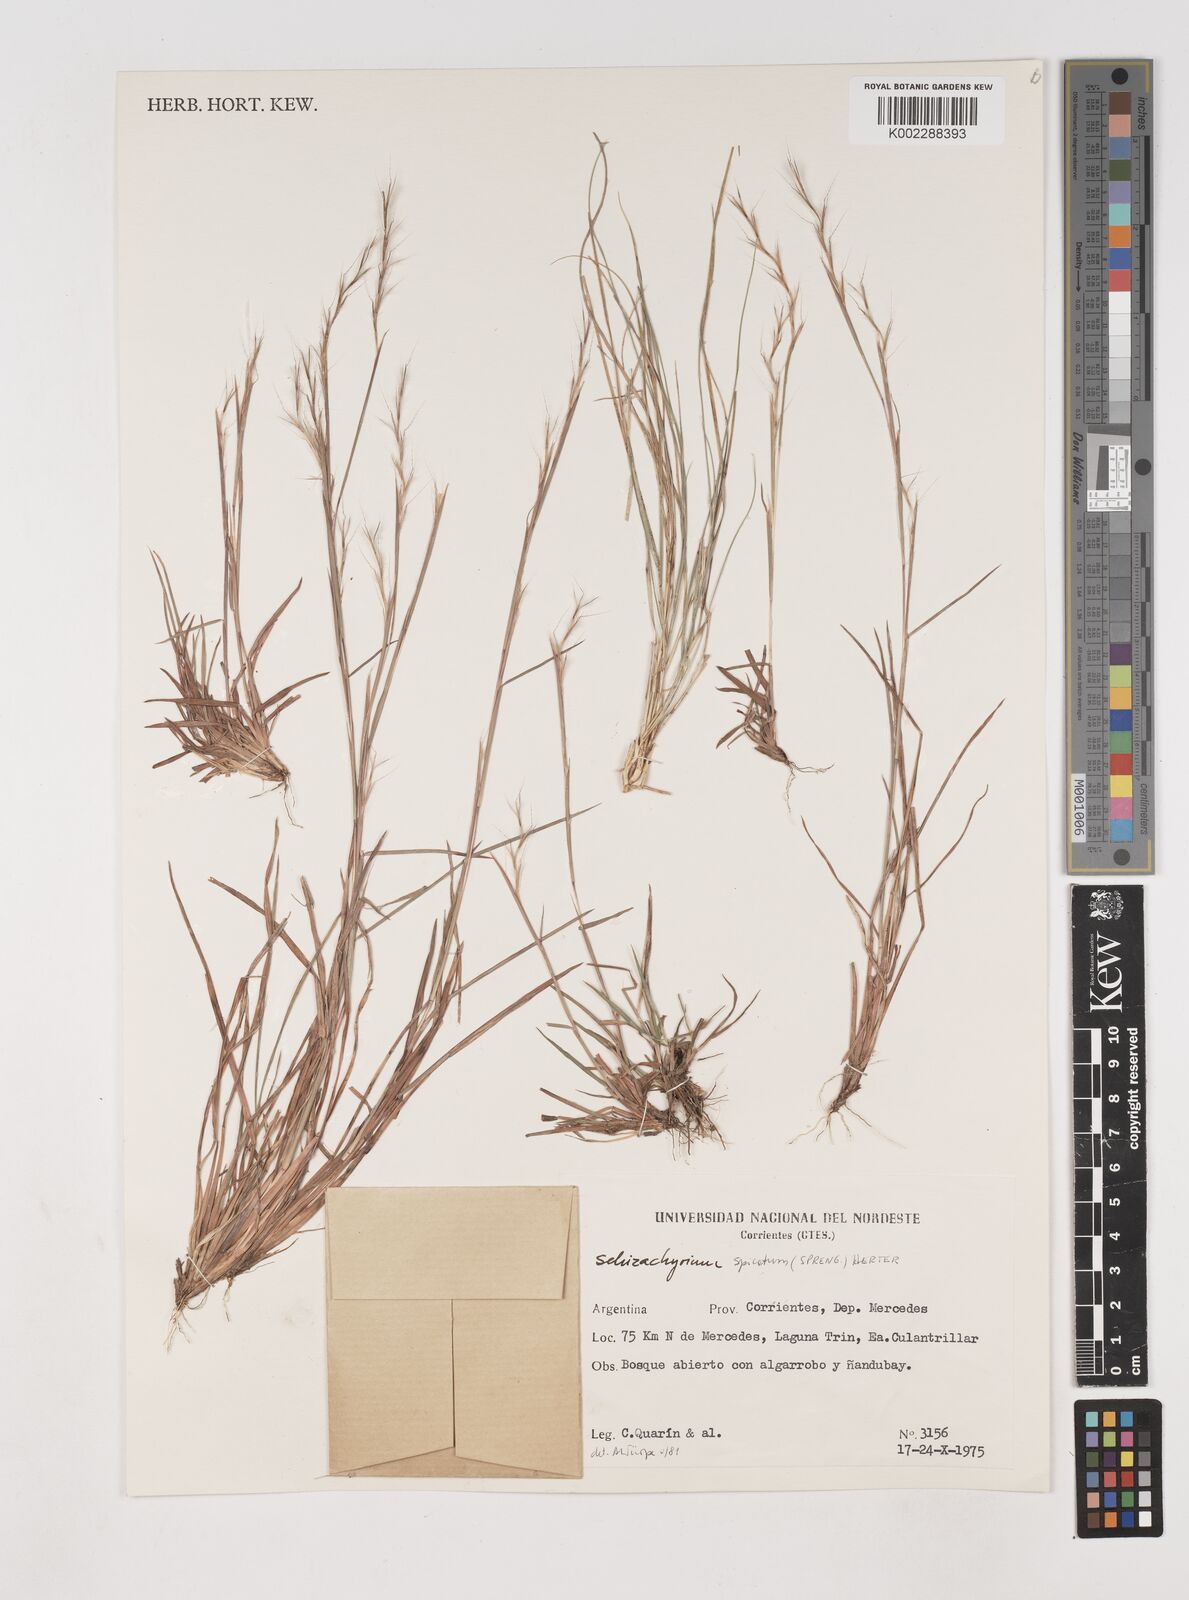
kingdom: Plantae
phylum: Tracheophyta
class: Liliopsida
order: Poales
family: Poaceae
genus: Schizachyrium
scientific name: Schizachyrium spicatum
